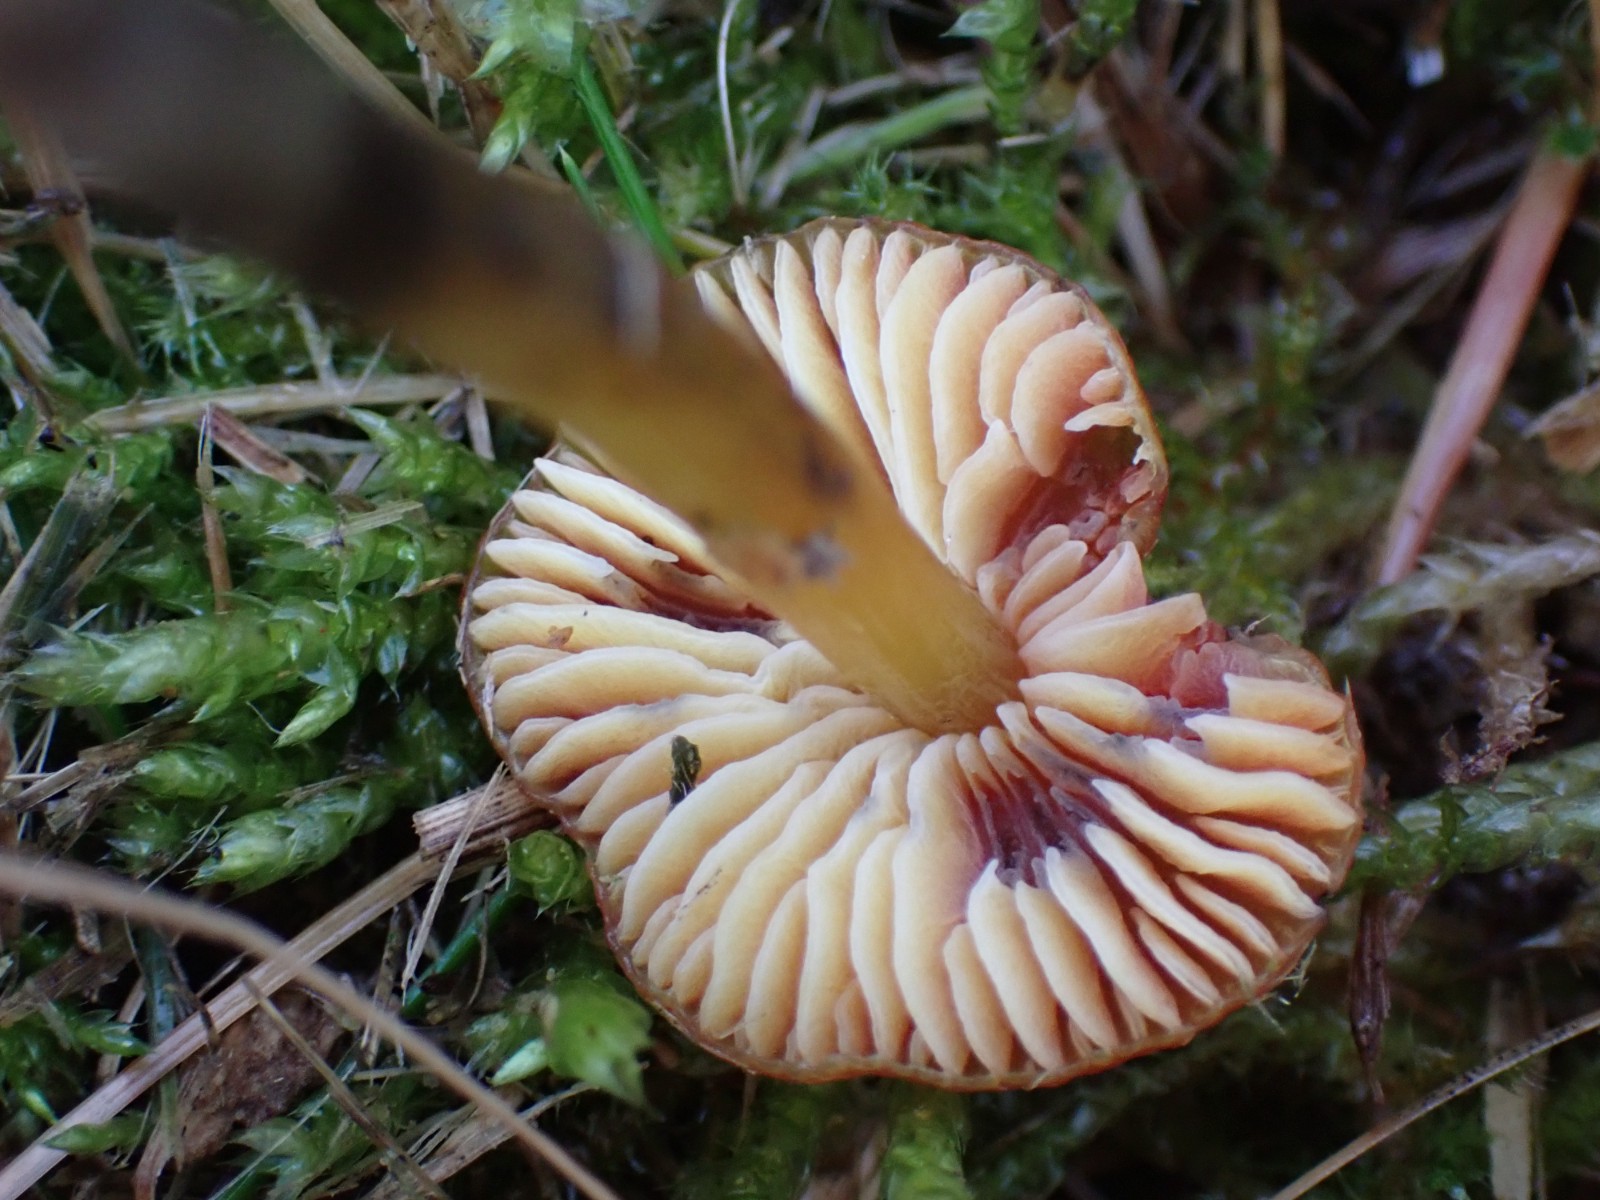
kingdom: Fungi
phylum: Basidiomycota
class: Agaricomycetes
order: Agaricales
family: Hygrophoraceae
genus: Hygrocybe
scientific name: Hygrocybe conica
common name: kegle-vokshat
